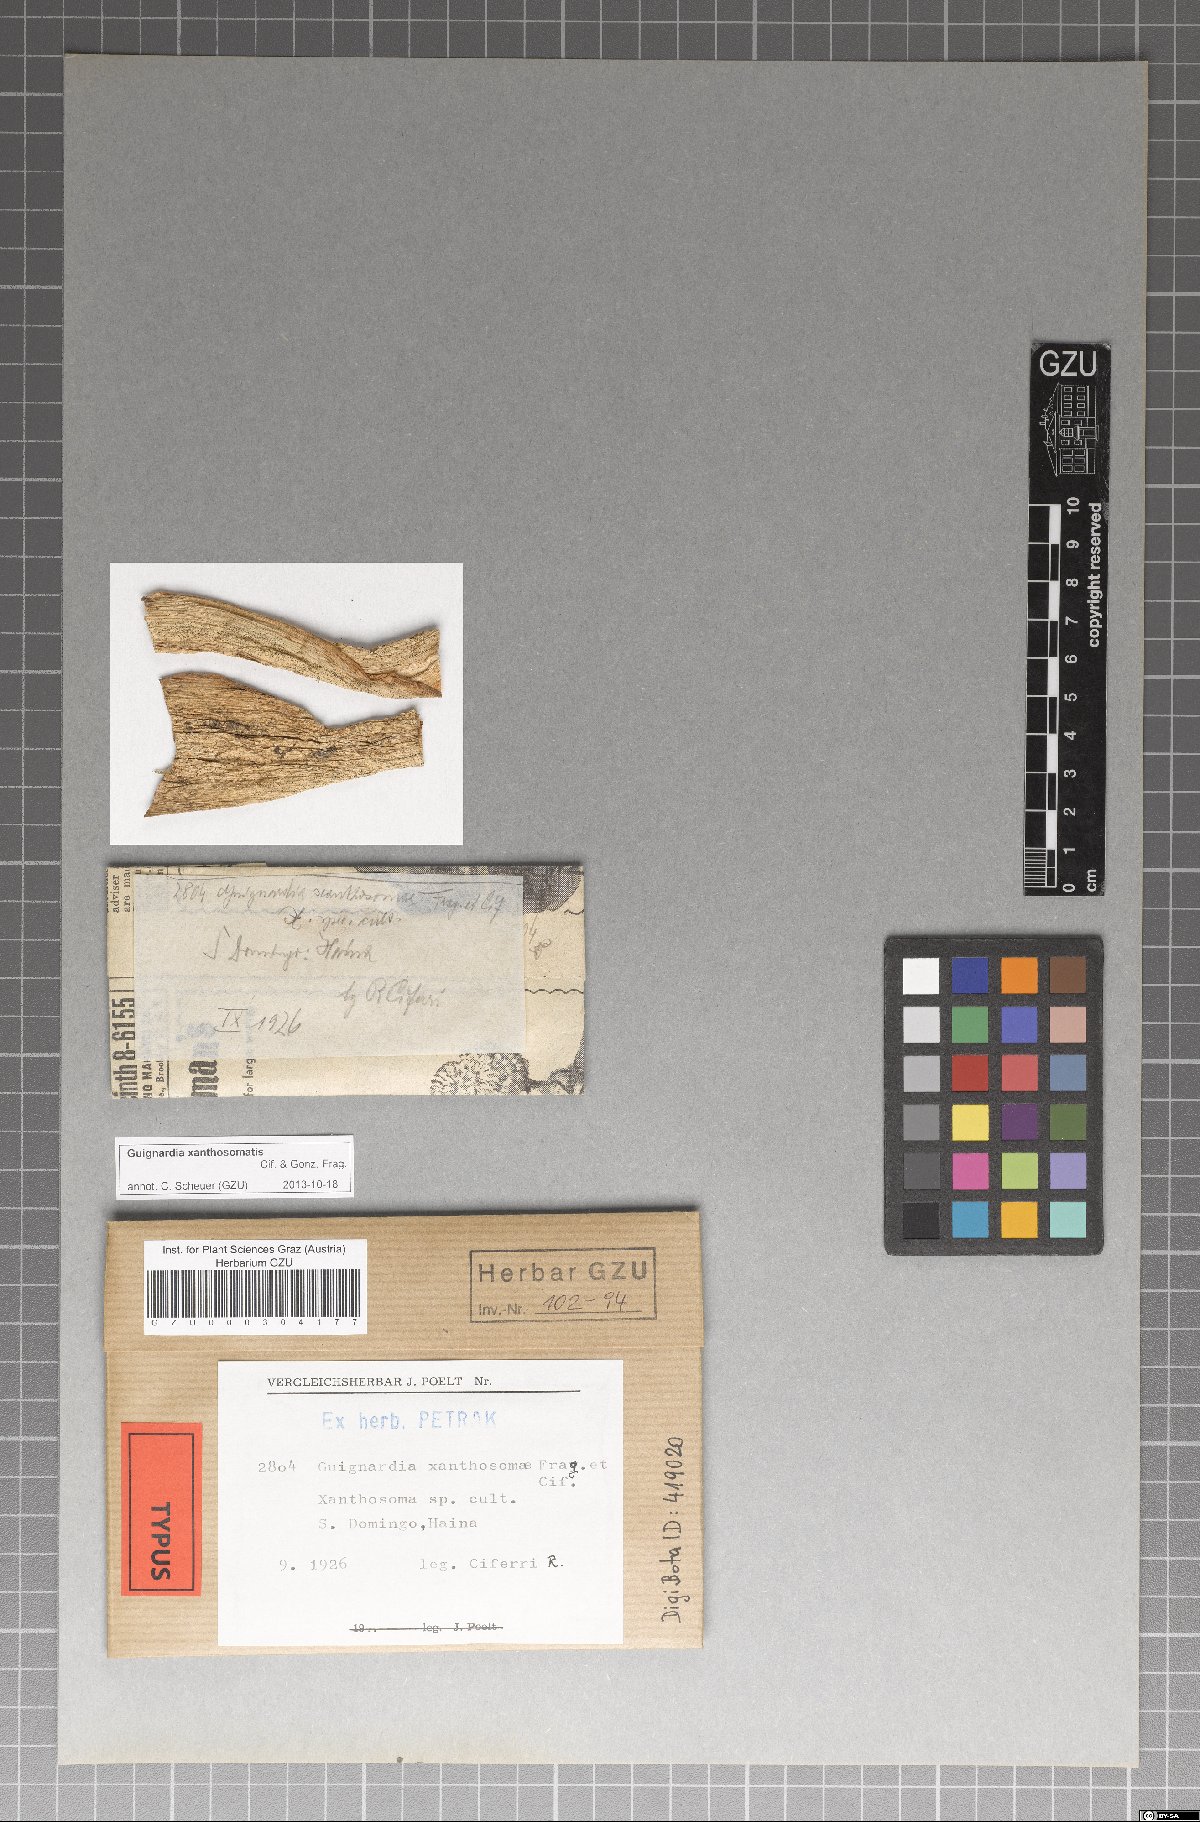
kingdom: Fungi
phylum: Ascomycota
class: Dothideomycetes
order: Botryosphaeriales
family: Phyllostictaceae
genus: Guignardia
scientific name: Guignardia xanthosomatis
